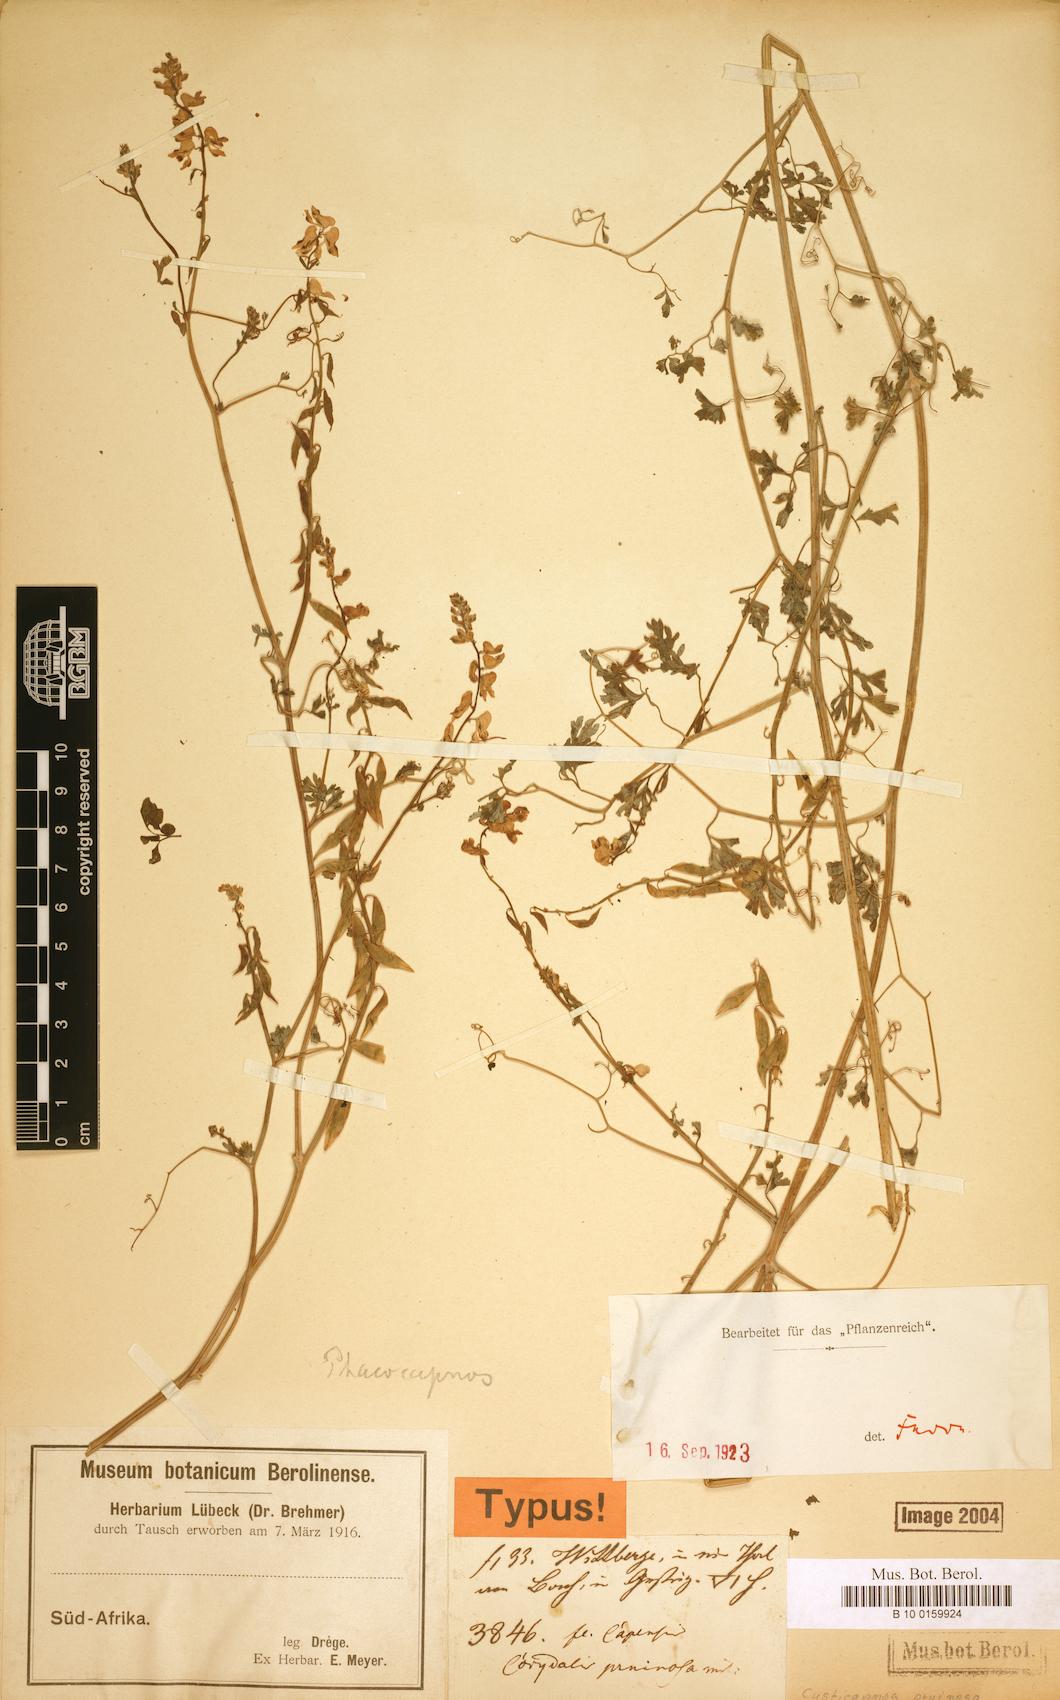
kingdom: Plantae
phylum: Tracheophyta
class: Magnoliopsida
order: Ranunculales
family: Papaveraceae
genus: Cysticapnos
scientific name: Cysticapnos pruinosa
